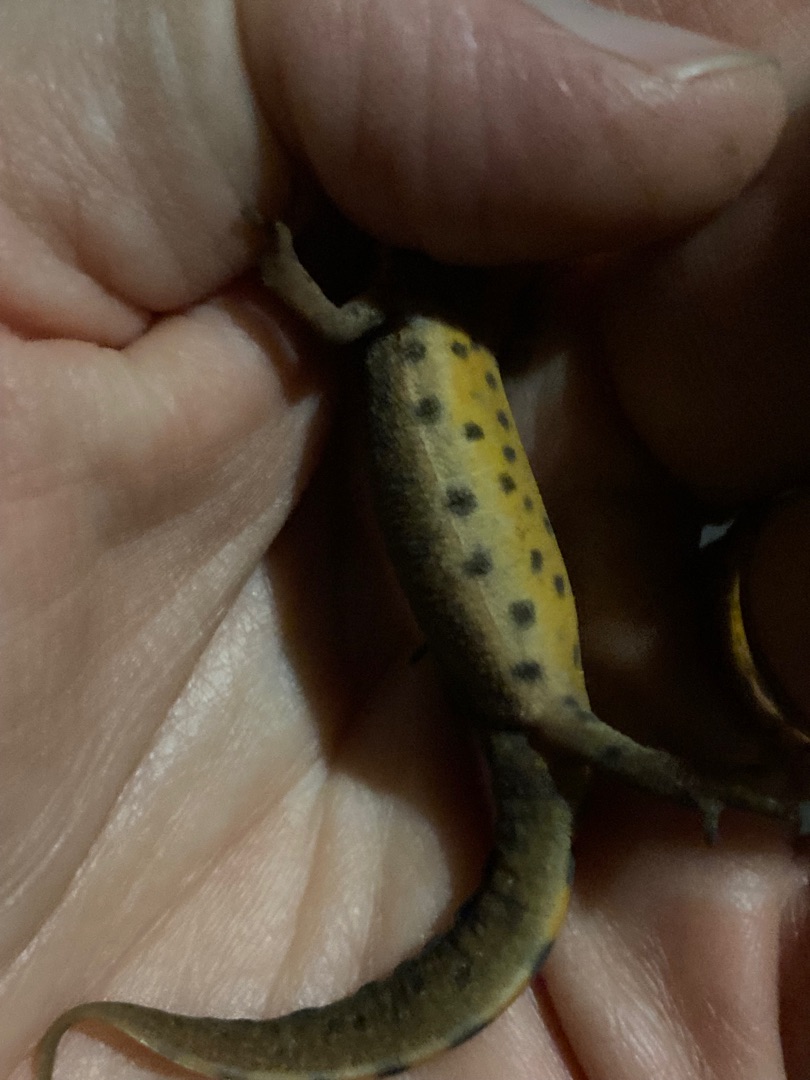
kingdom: Animalia
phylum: Chordata
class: Amphibia
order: Caudata
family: Salamandridae
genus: Lissotriton
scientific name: Lissotriton vulgaris
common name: Lille vandsalamander
